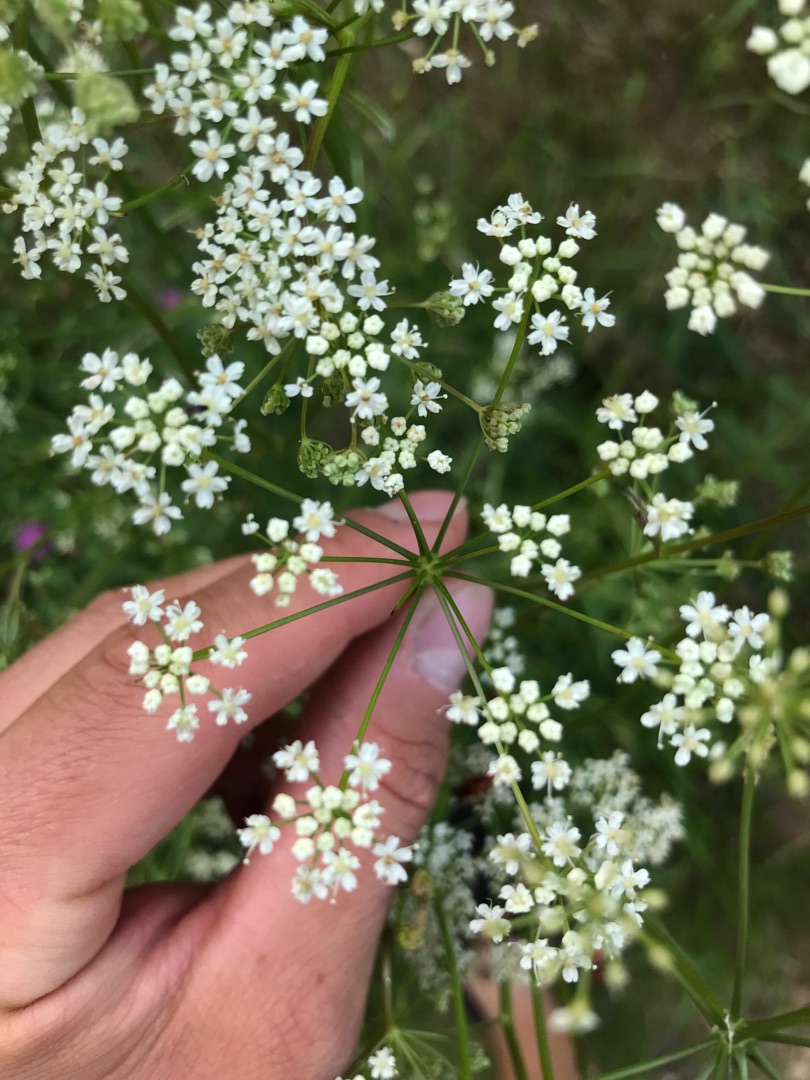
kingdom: Plantae
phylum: Tracheophyta
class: Magnoliopsida
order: Apiales
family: Apiaceae
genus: Pimpinella
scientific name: Pimpinella saxifraga
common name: Almindelig pimpinelle
